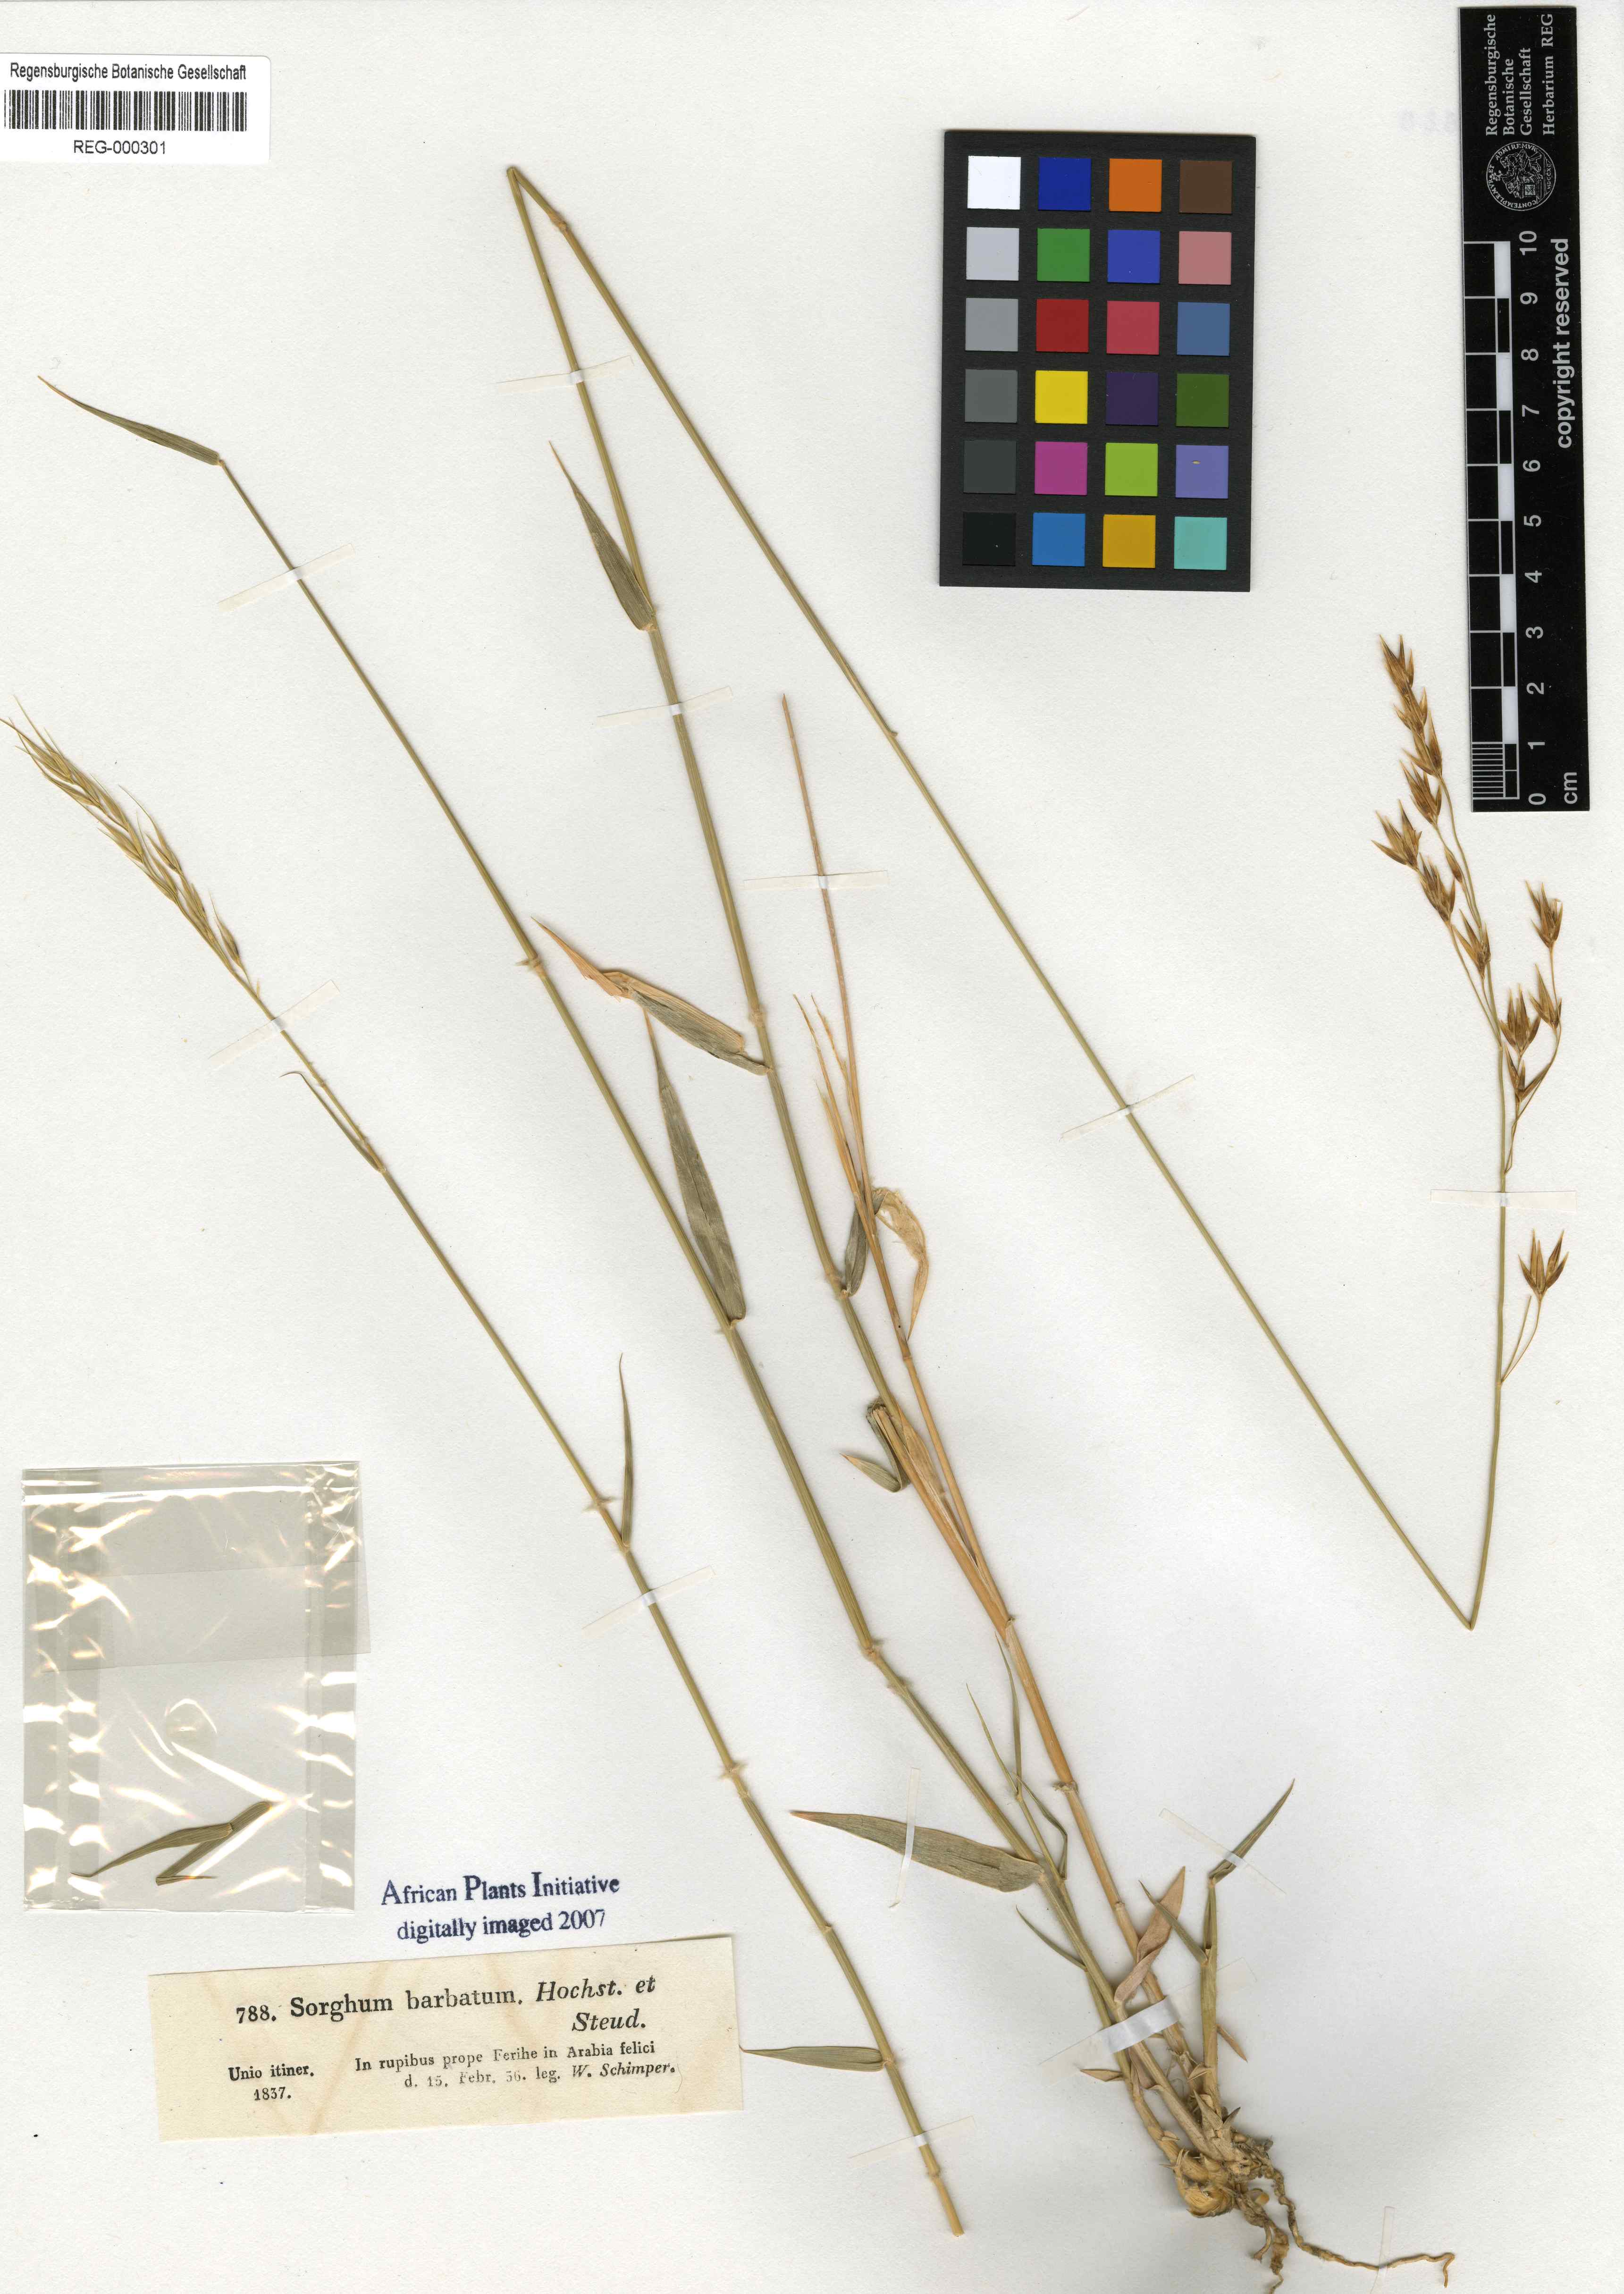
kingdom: Plantae
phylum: Tracheophyta
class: Liliopsida
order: Poales
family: Poaceae
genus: Danthoniopsis
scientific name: Danthoniopsis barbata
